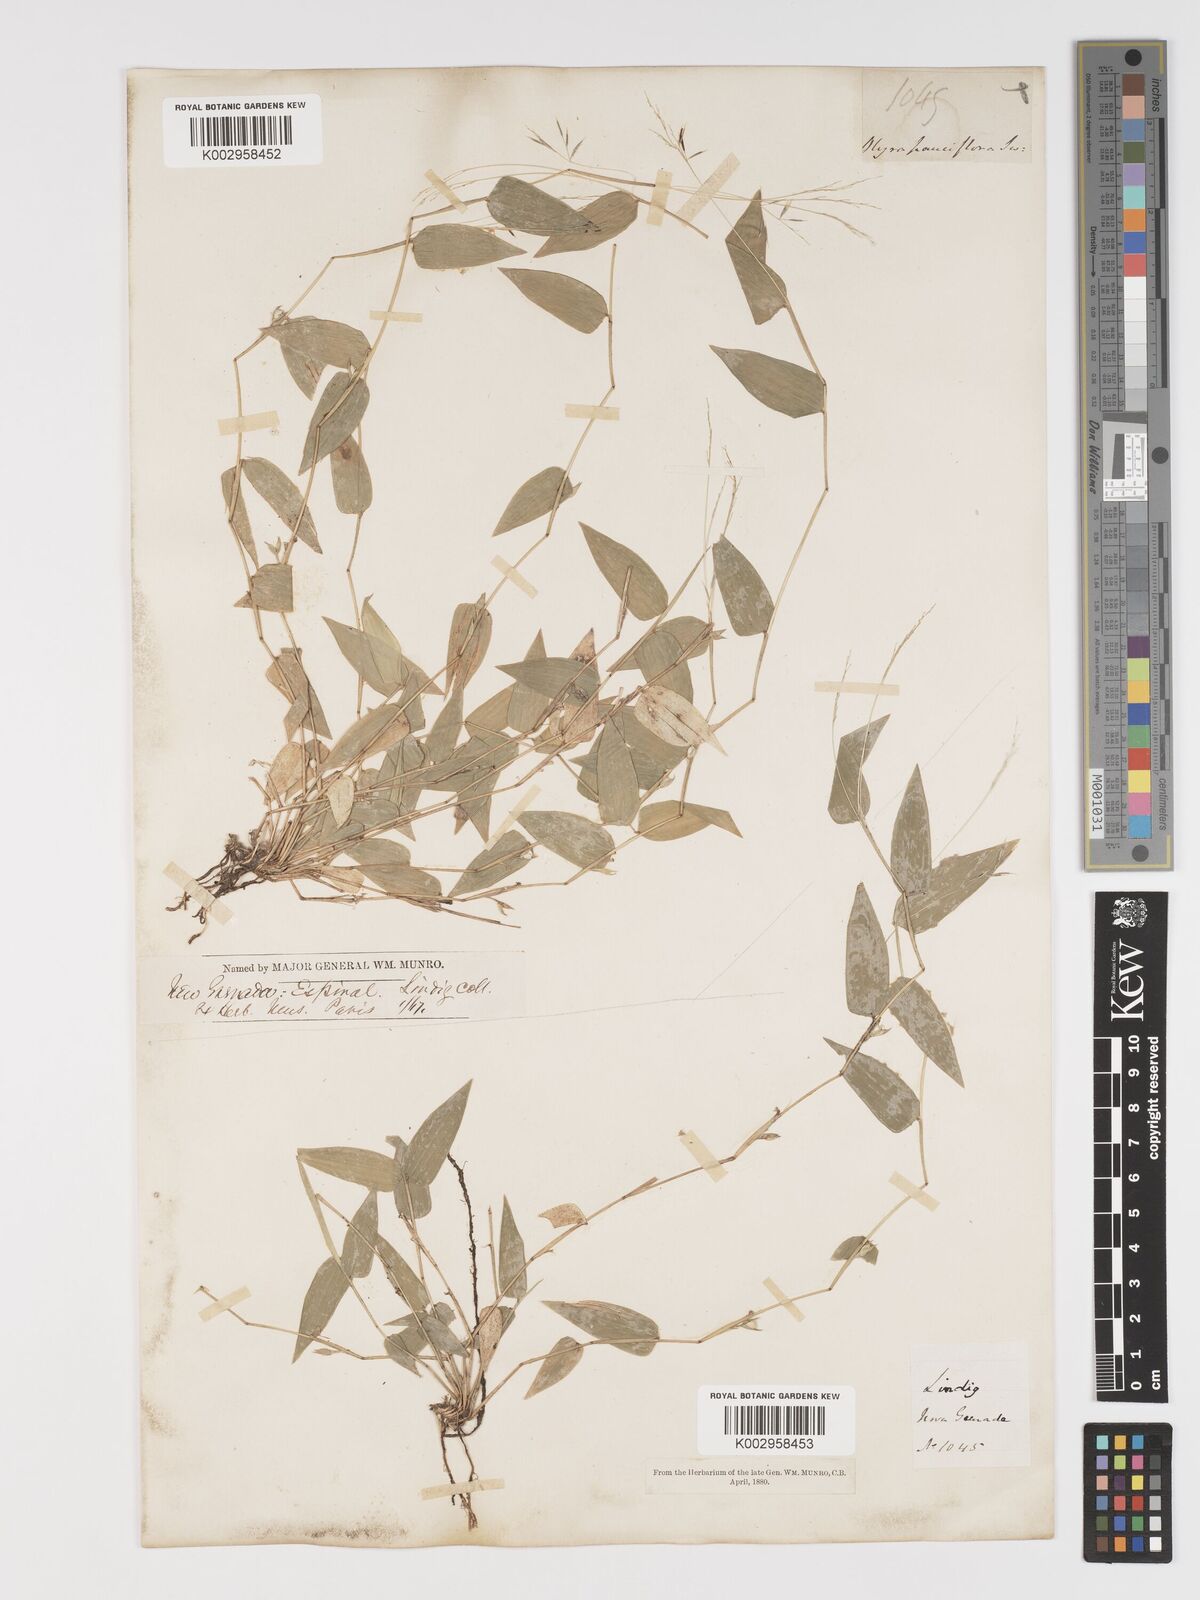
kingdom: Plantae
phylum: Tracheophyta
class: Liliopsida
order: Poales
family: Poaceae
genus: Lithachne
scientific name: Lithachne pauciflora
